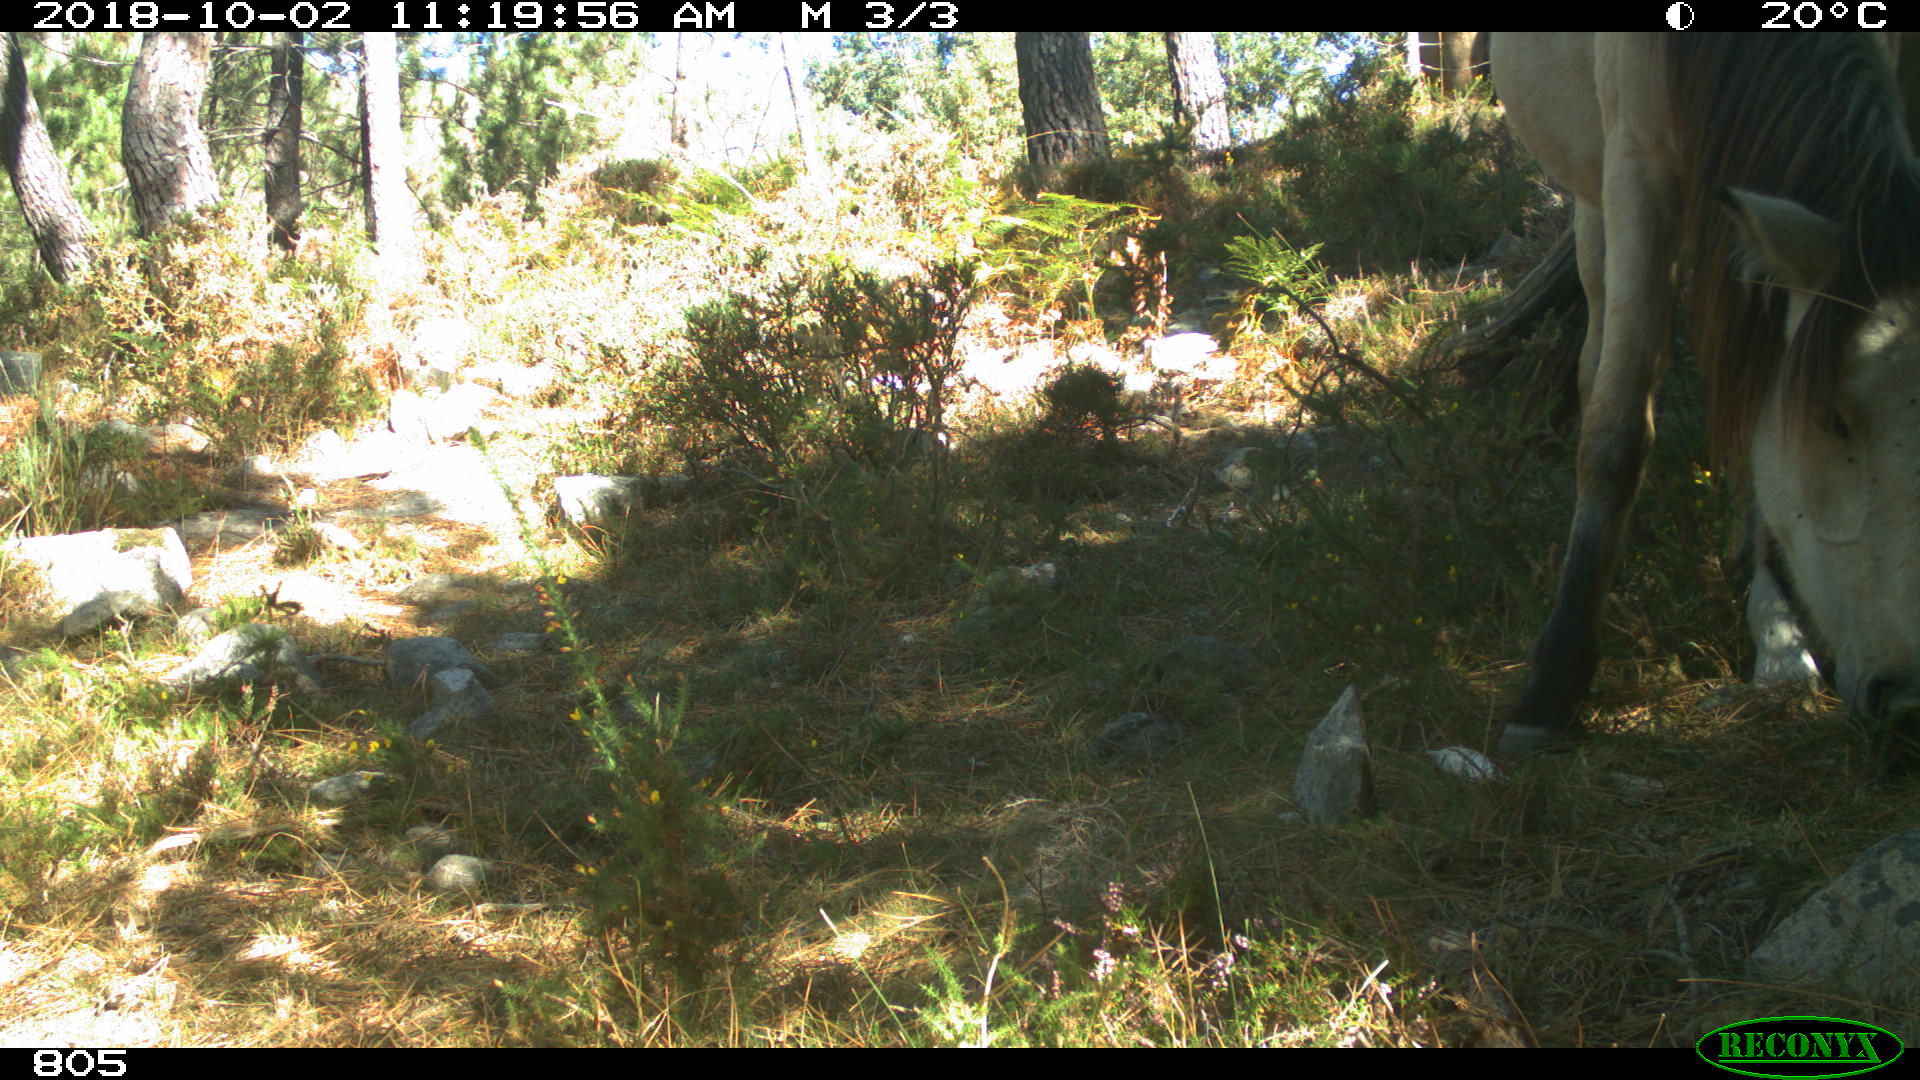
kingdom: Animalia
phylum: Chordata
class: Mammalia
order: Perissodactyla
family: Equidae
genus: Equus
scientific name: Equus caballus
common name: Horse
